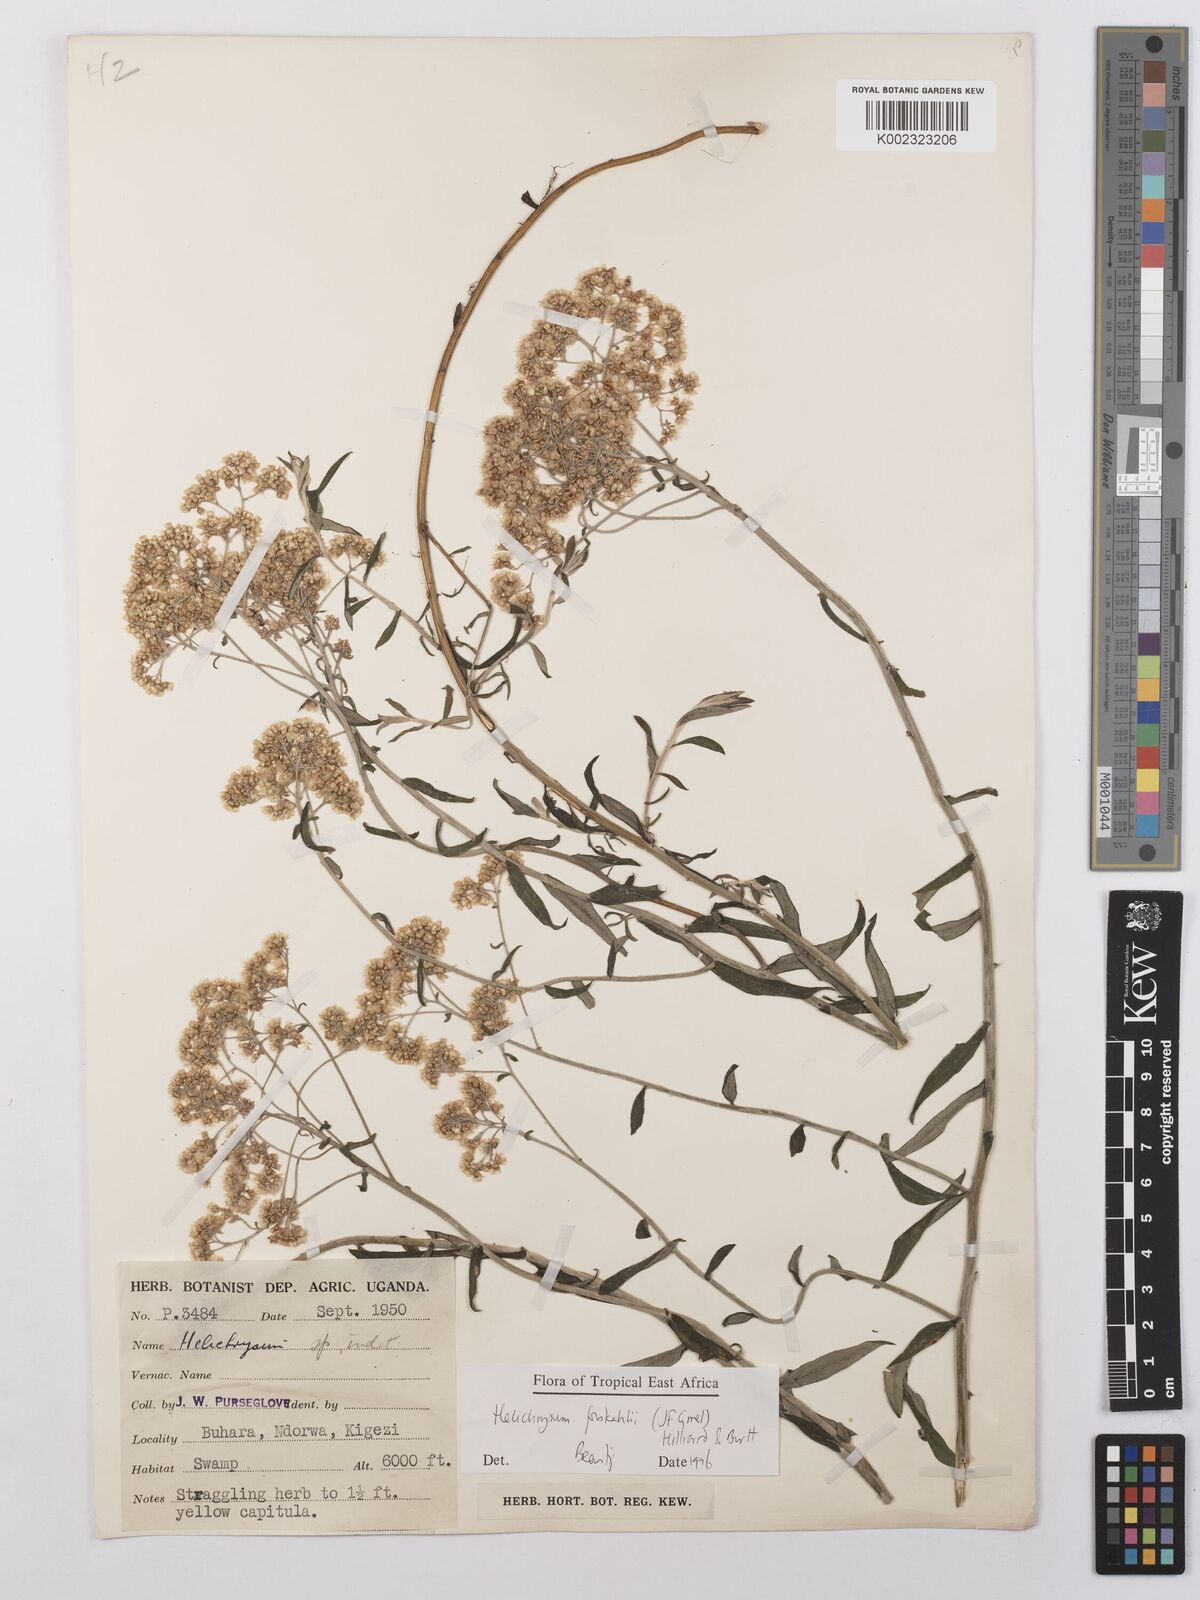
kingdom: Plantae
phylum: Tracheophyta
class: Magnoliopsida
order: Asterales
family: Asteraceae
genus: Helichrysum
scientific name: Helichrysum forskahlii
